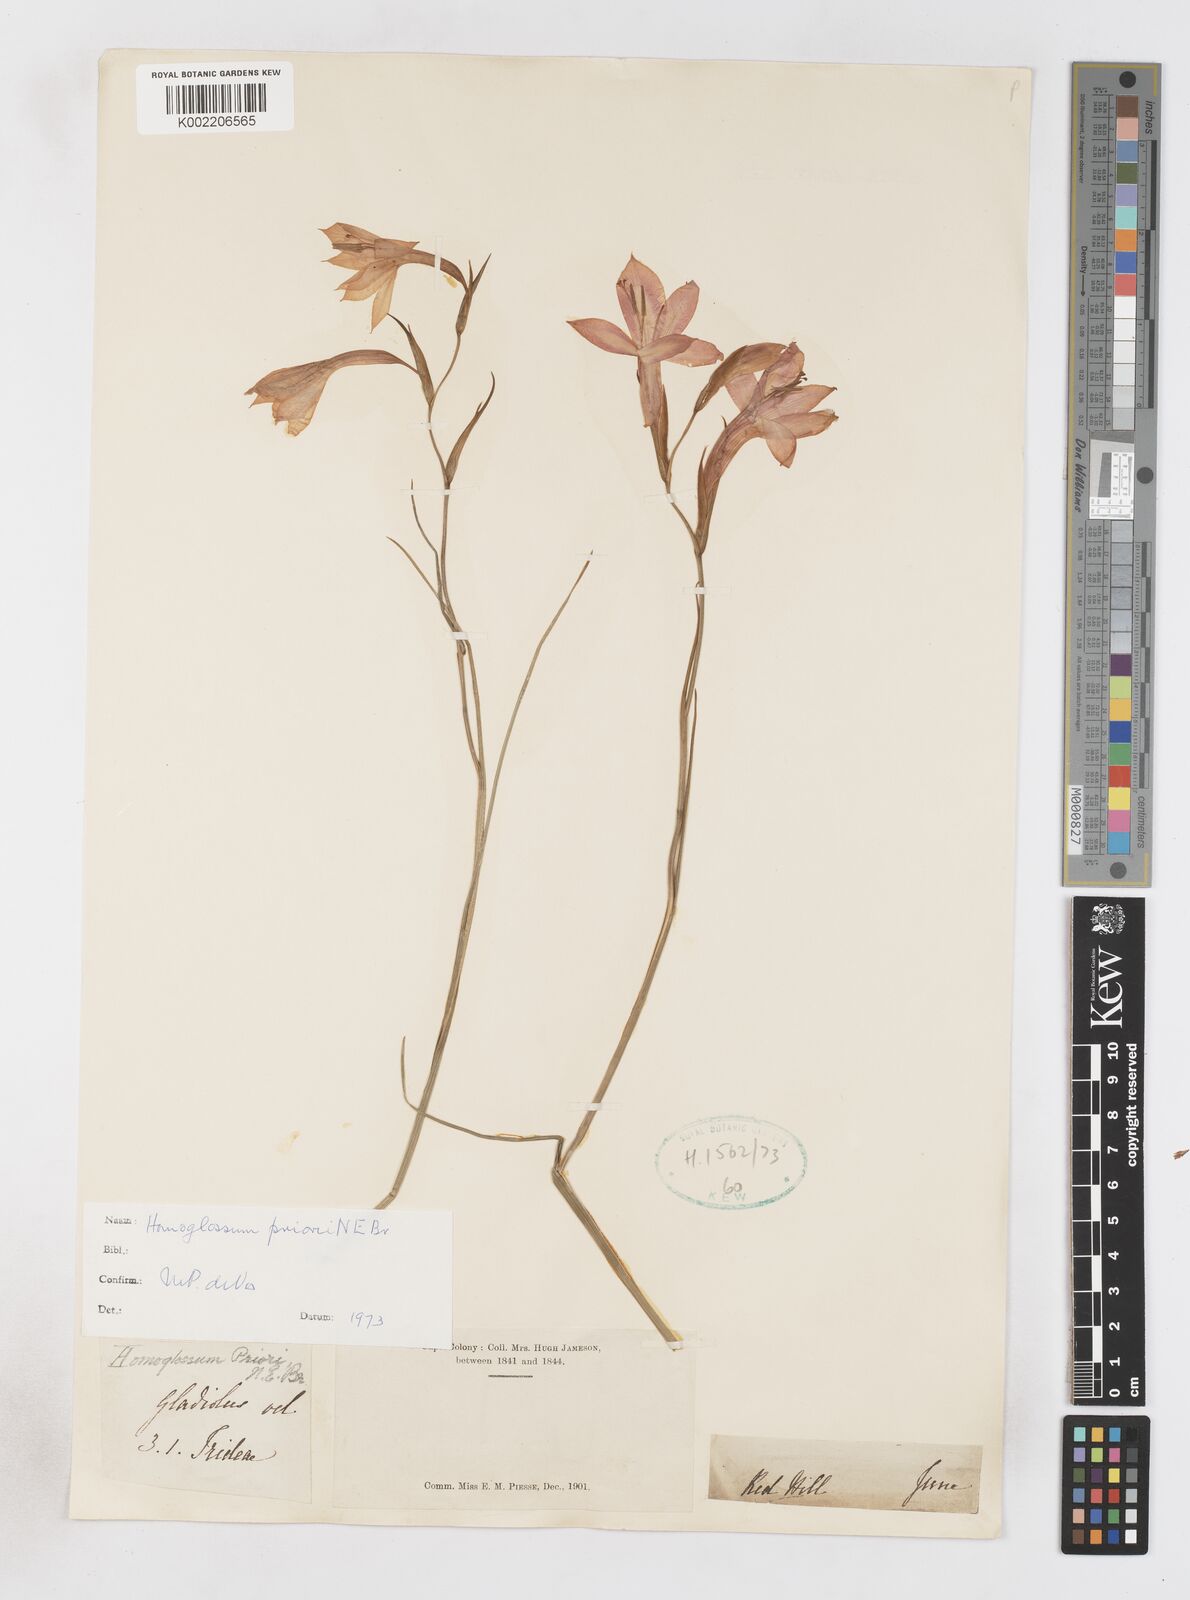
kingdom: Plantae
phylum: Tracheophyta
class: Liliopsida
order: Asparagales
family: Iridaceae
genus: Gladiolus
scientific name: Gladiolus priorii
